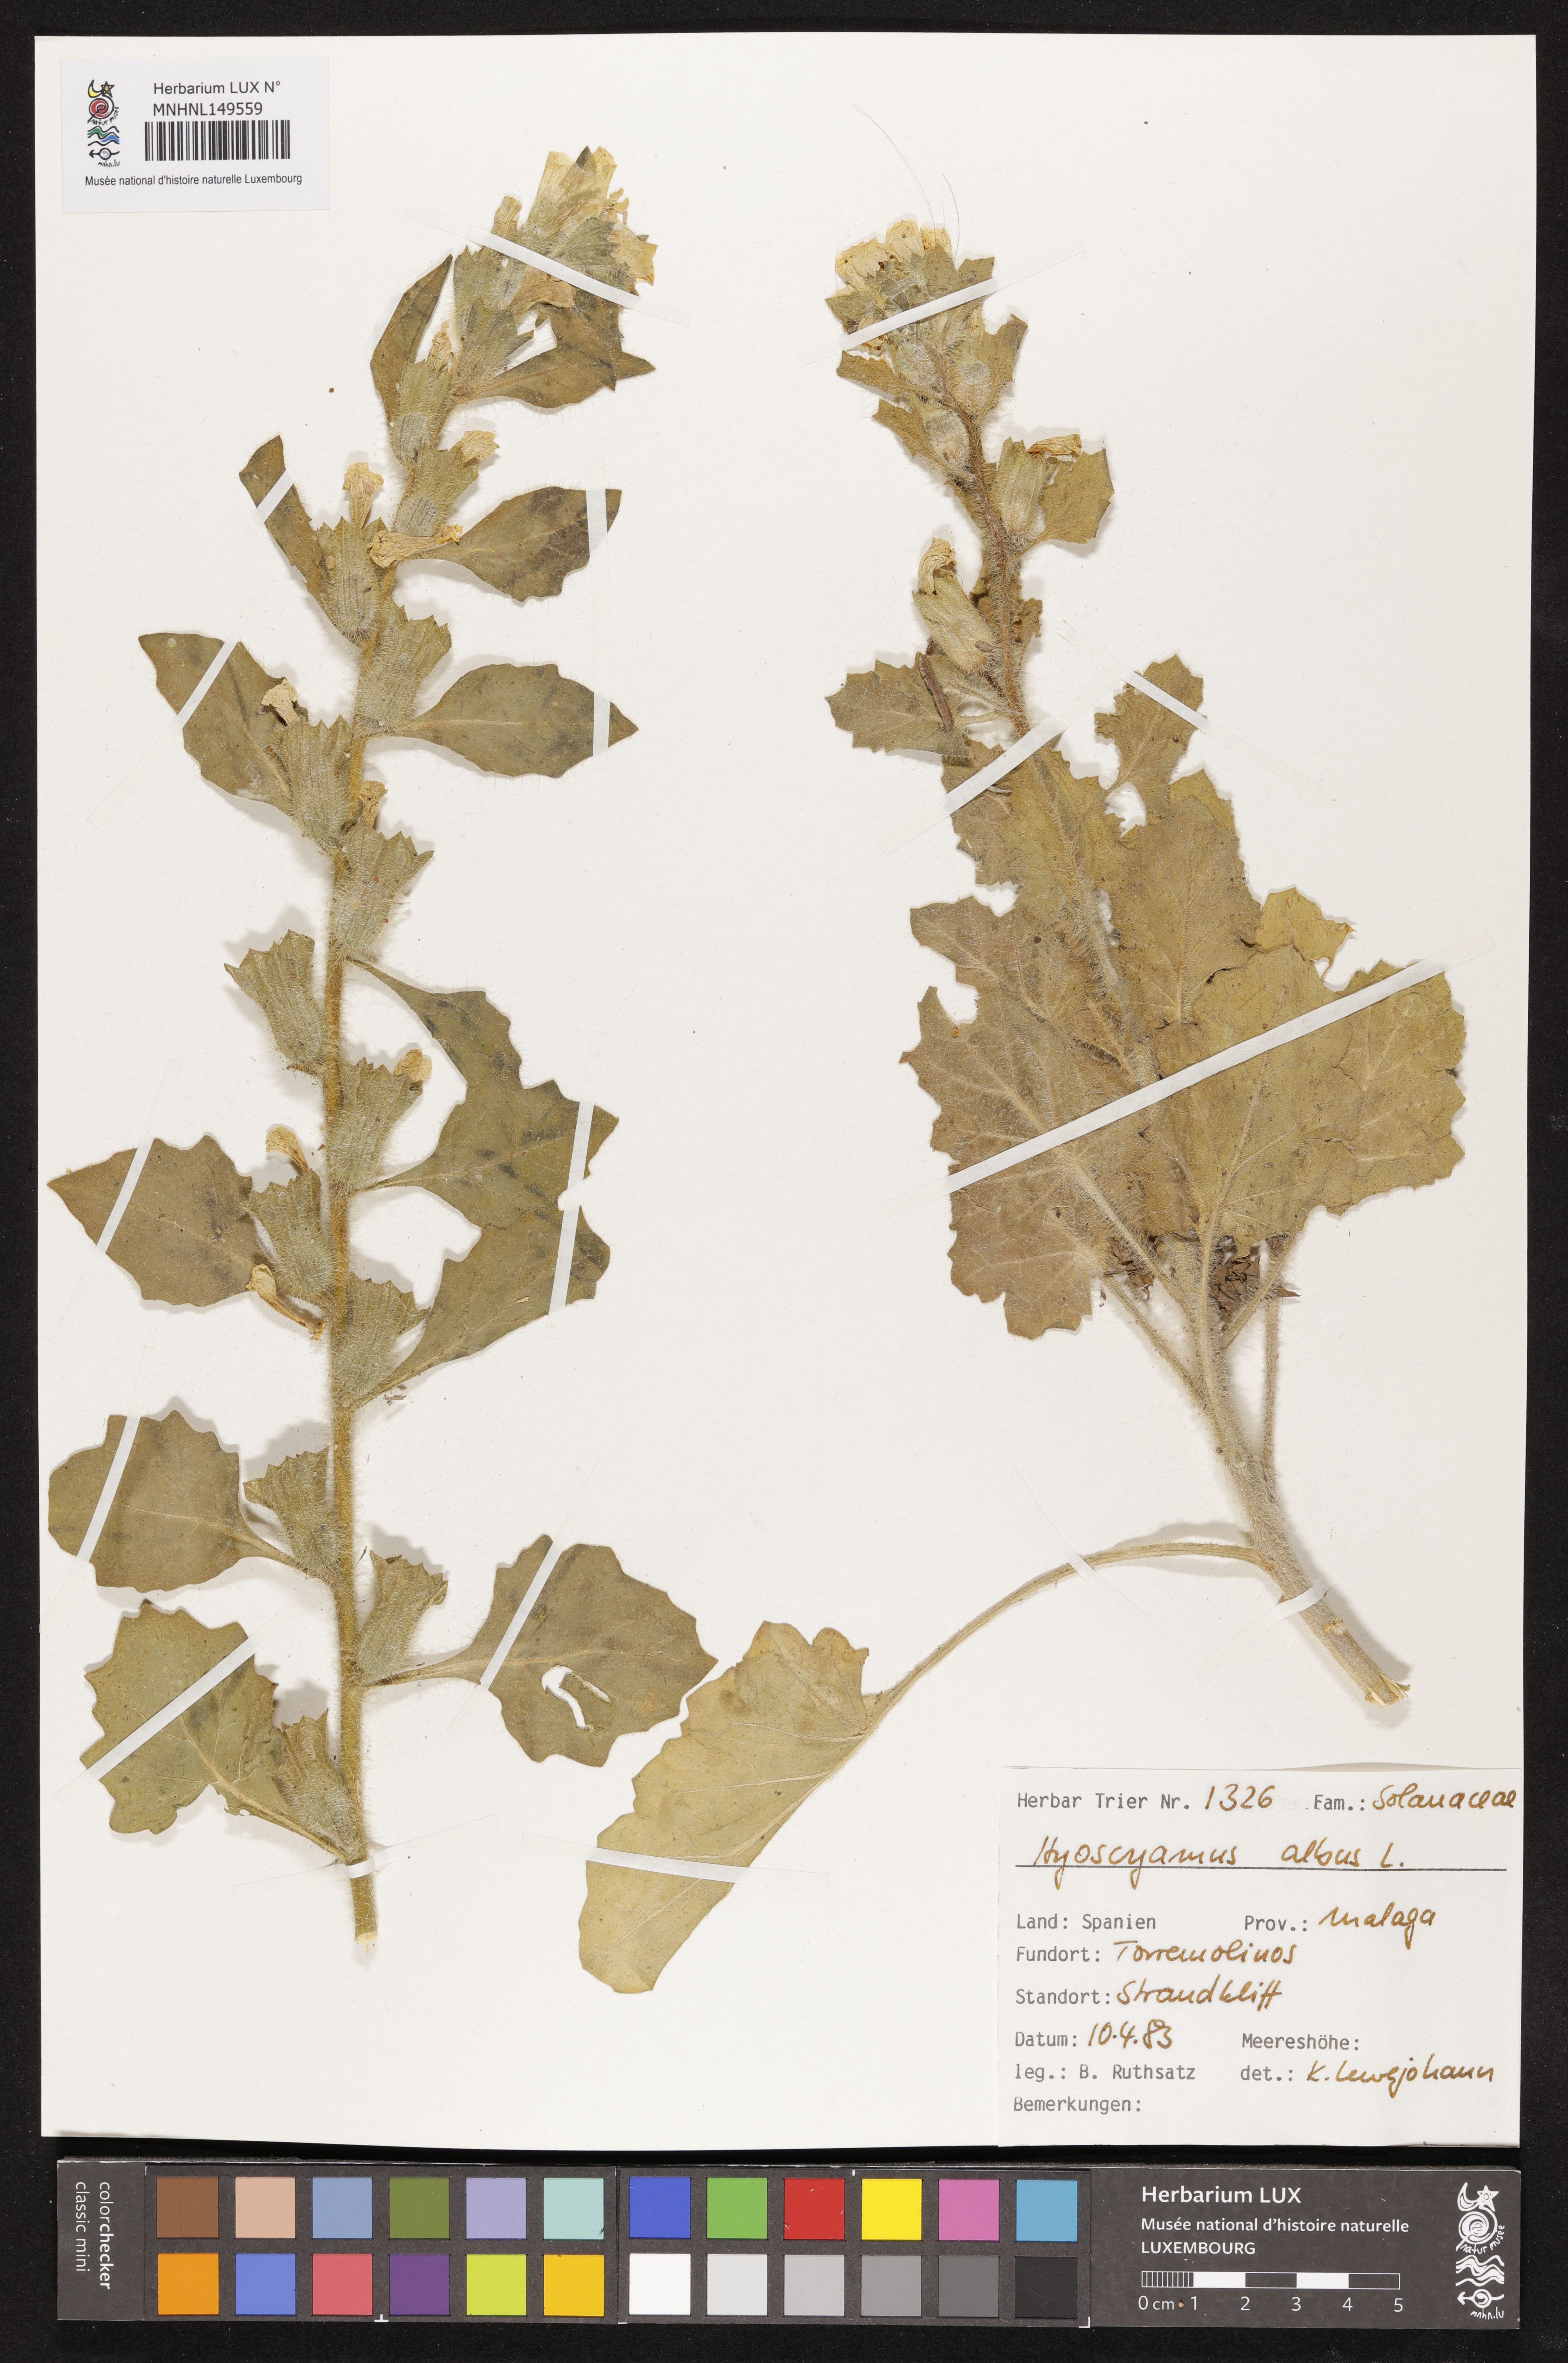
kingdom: Plantae
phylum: Tracheophyta
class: Magnoliopsida
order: Solanales
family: Solanaceae
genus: Hyoscyamus
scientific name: Hyoscyamus albus
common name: White henbane
